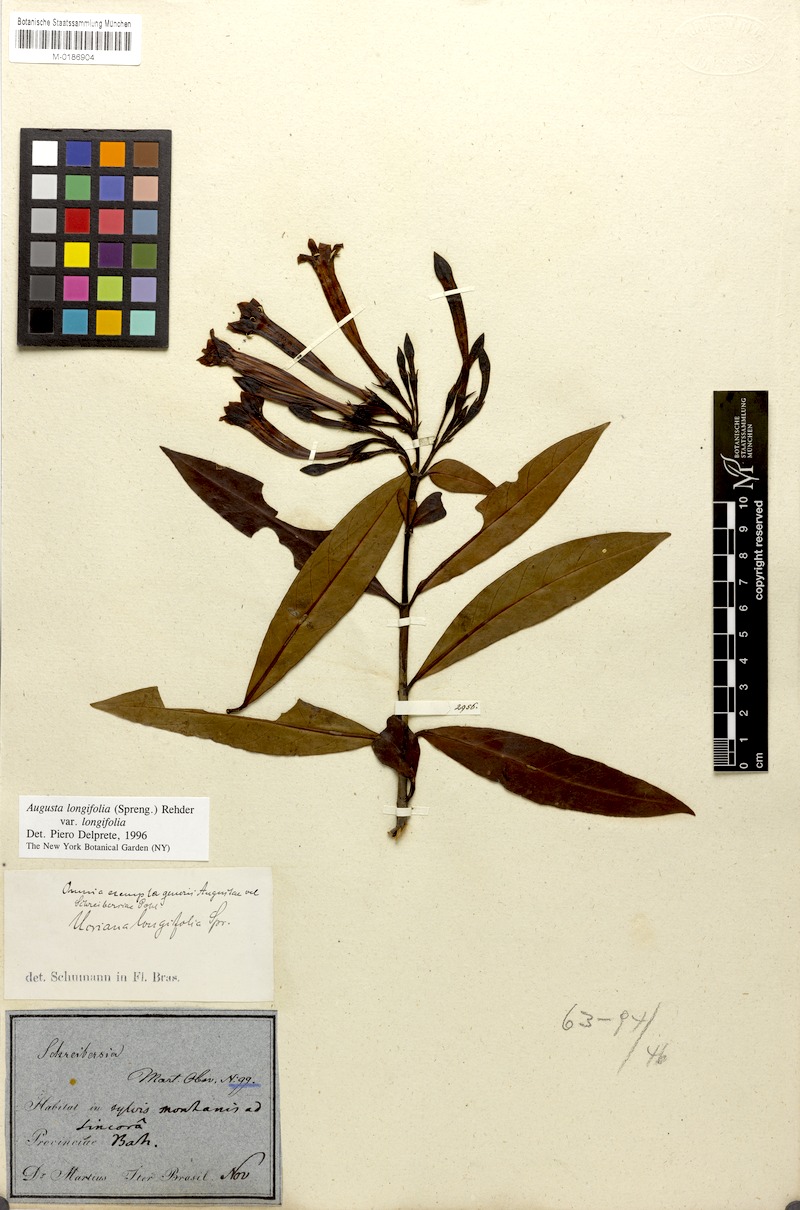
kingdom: Plantae
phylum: Tracheophyta
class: Magnoliopsida
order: Gentianales
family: Rubiaceae
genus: Augusta
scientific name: Augusta longifolia
